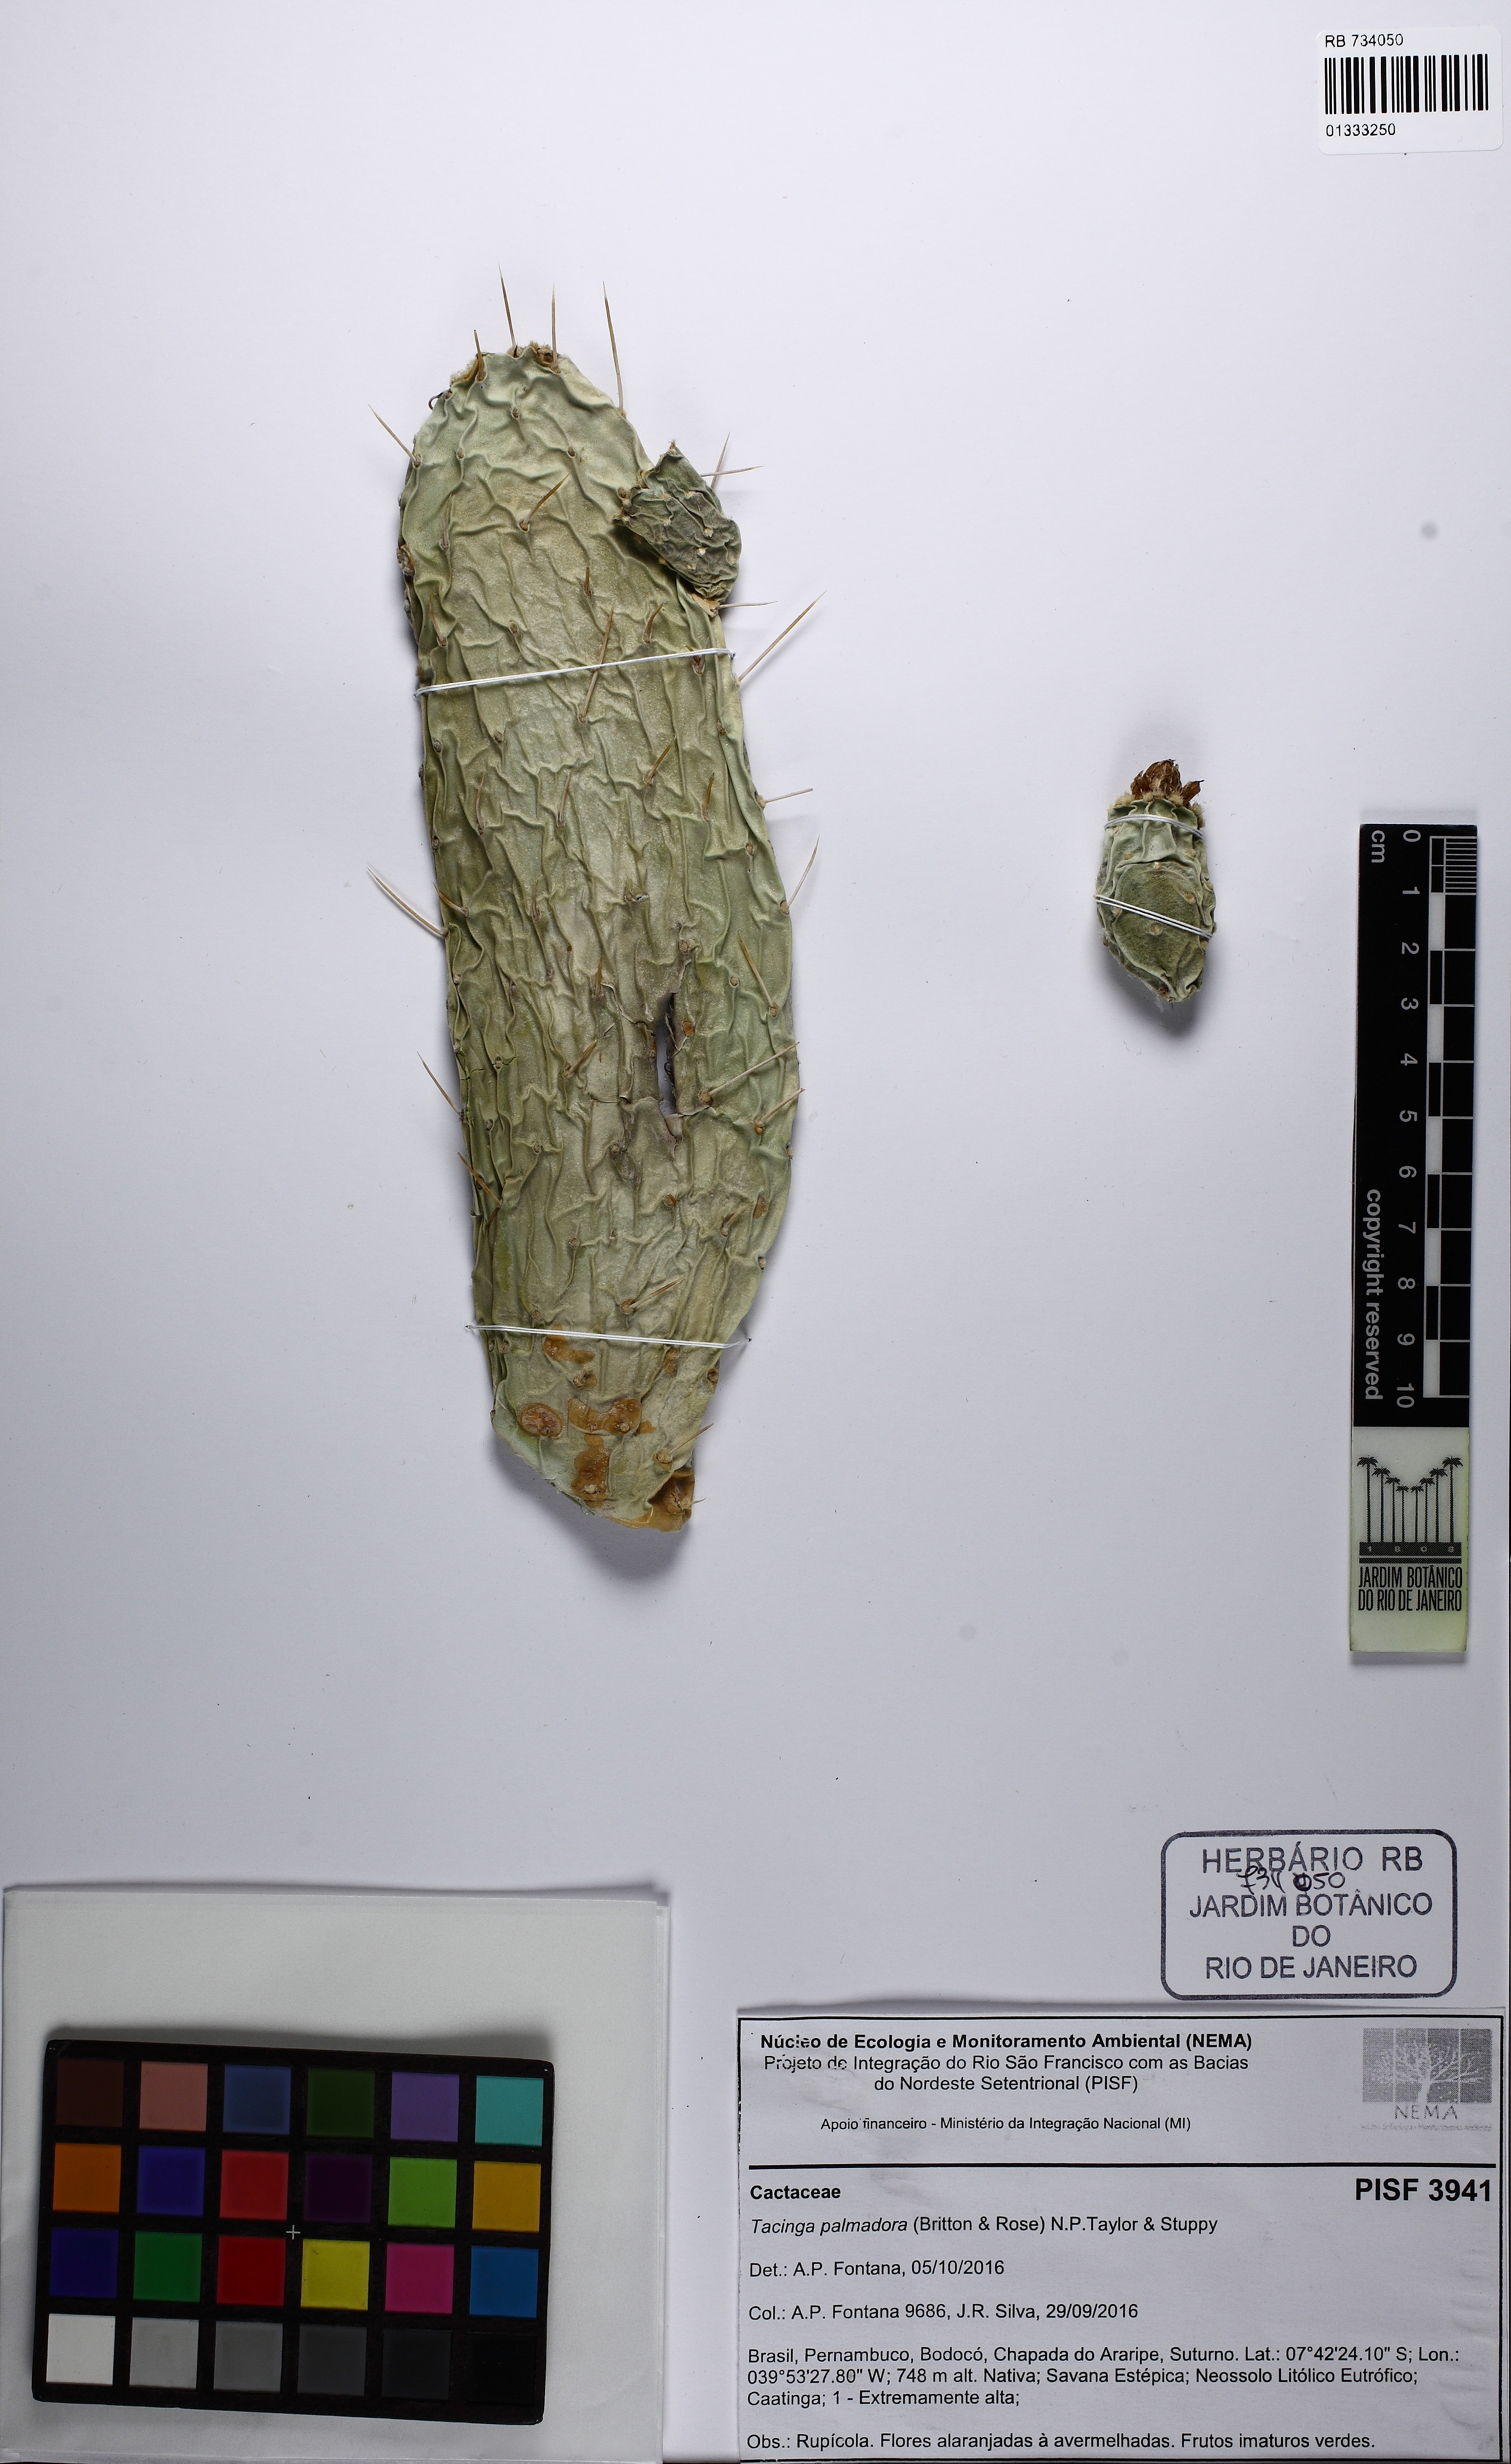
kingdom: Plantae
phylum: Tracheophyta
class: Magnoliopsida
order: Caryophyllales
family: Cactaceae
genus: Tacinga
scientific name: Tacinga palmadora
